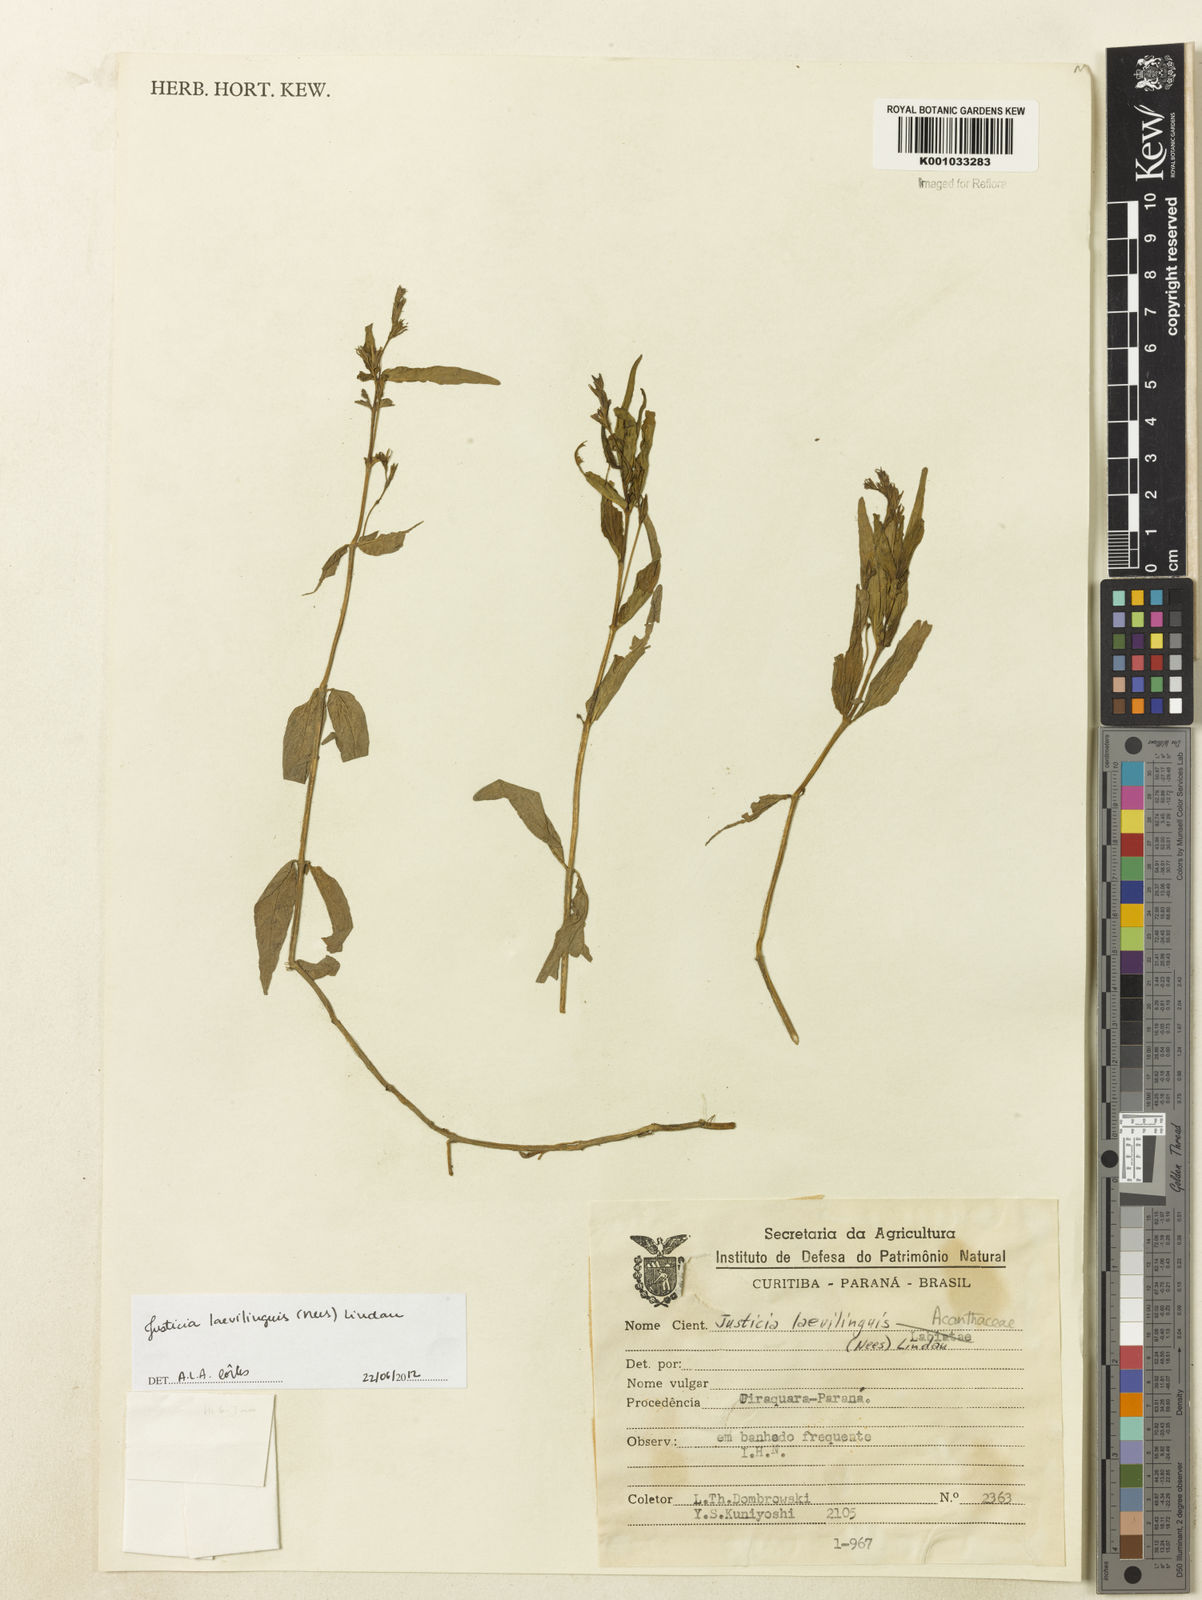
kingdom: Plantae
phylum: Tracheophyta
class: Magnoliopsida
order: Lamiales
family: Acanthaceae
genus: Dianthera
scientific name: Dianthera laevilinguis
